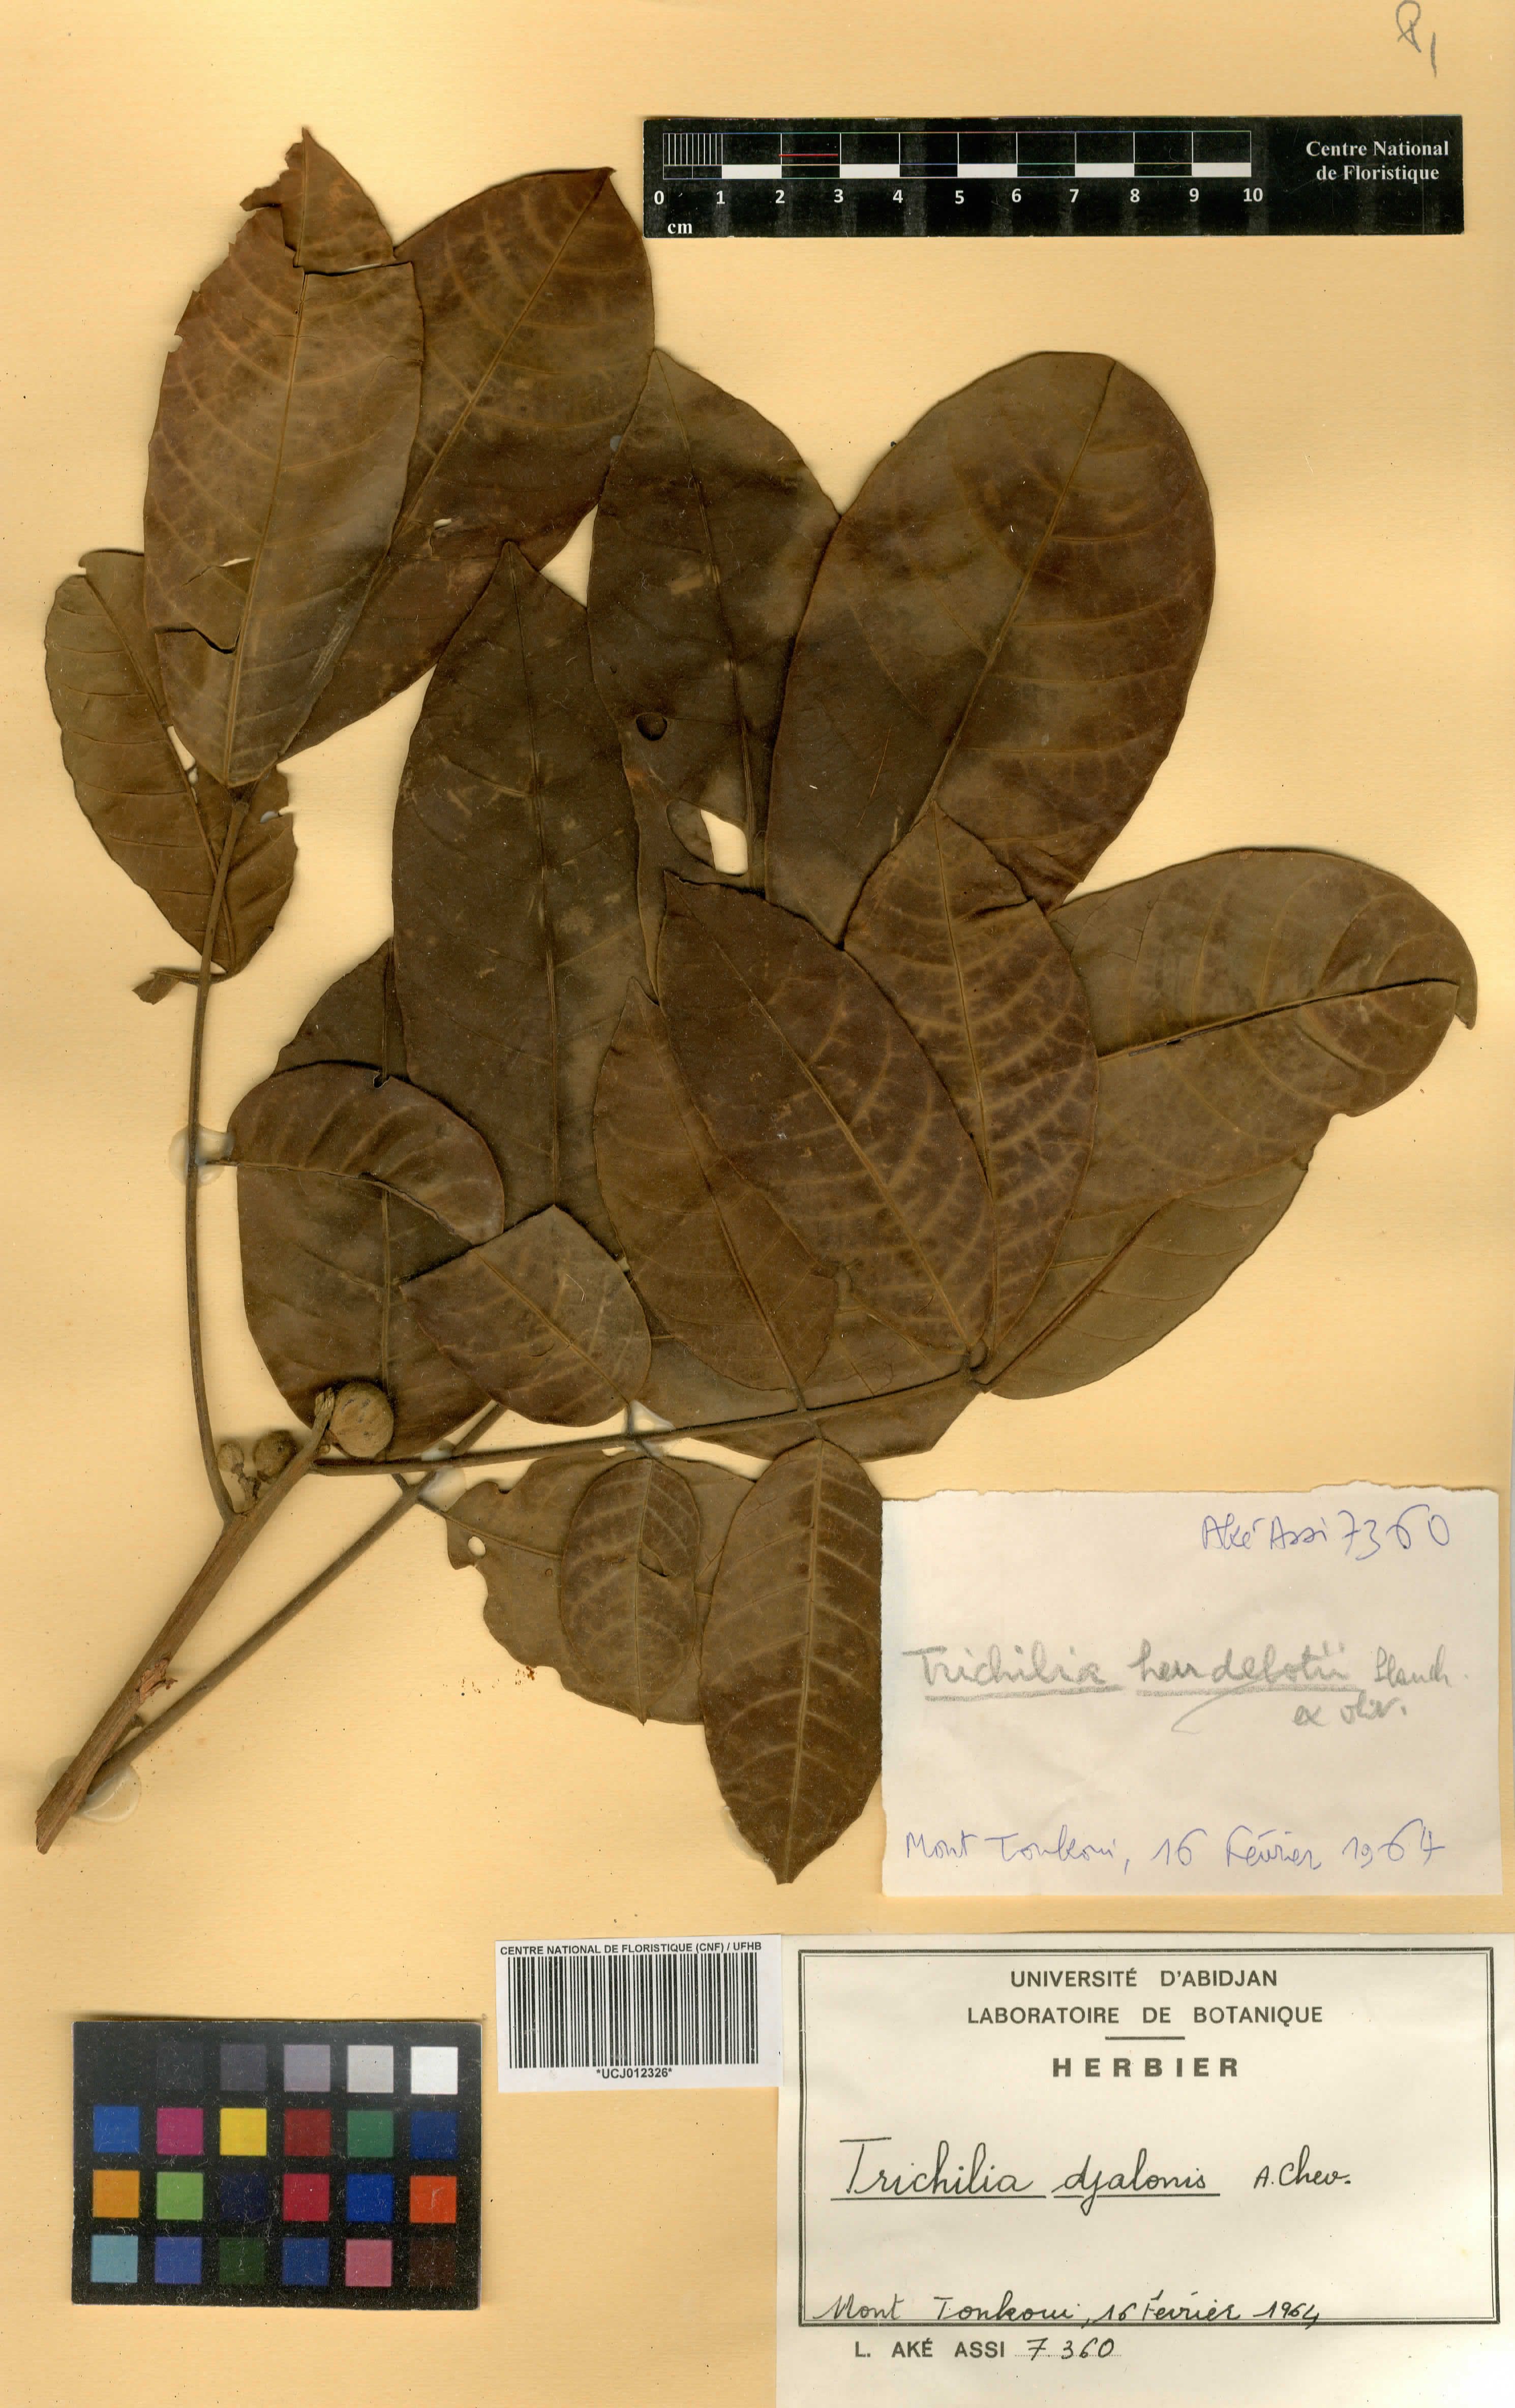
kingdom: Plantae
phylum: Tracheophyta
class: Magnoliopsida
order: Sapindales
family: Meliaceae
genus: Trichilia
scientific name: Trichilia djalonis
